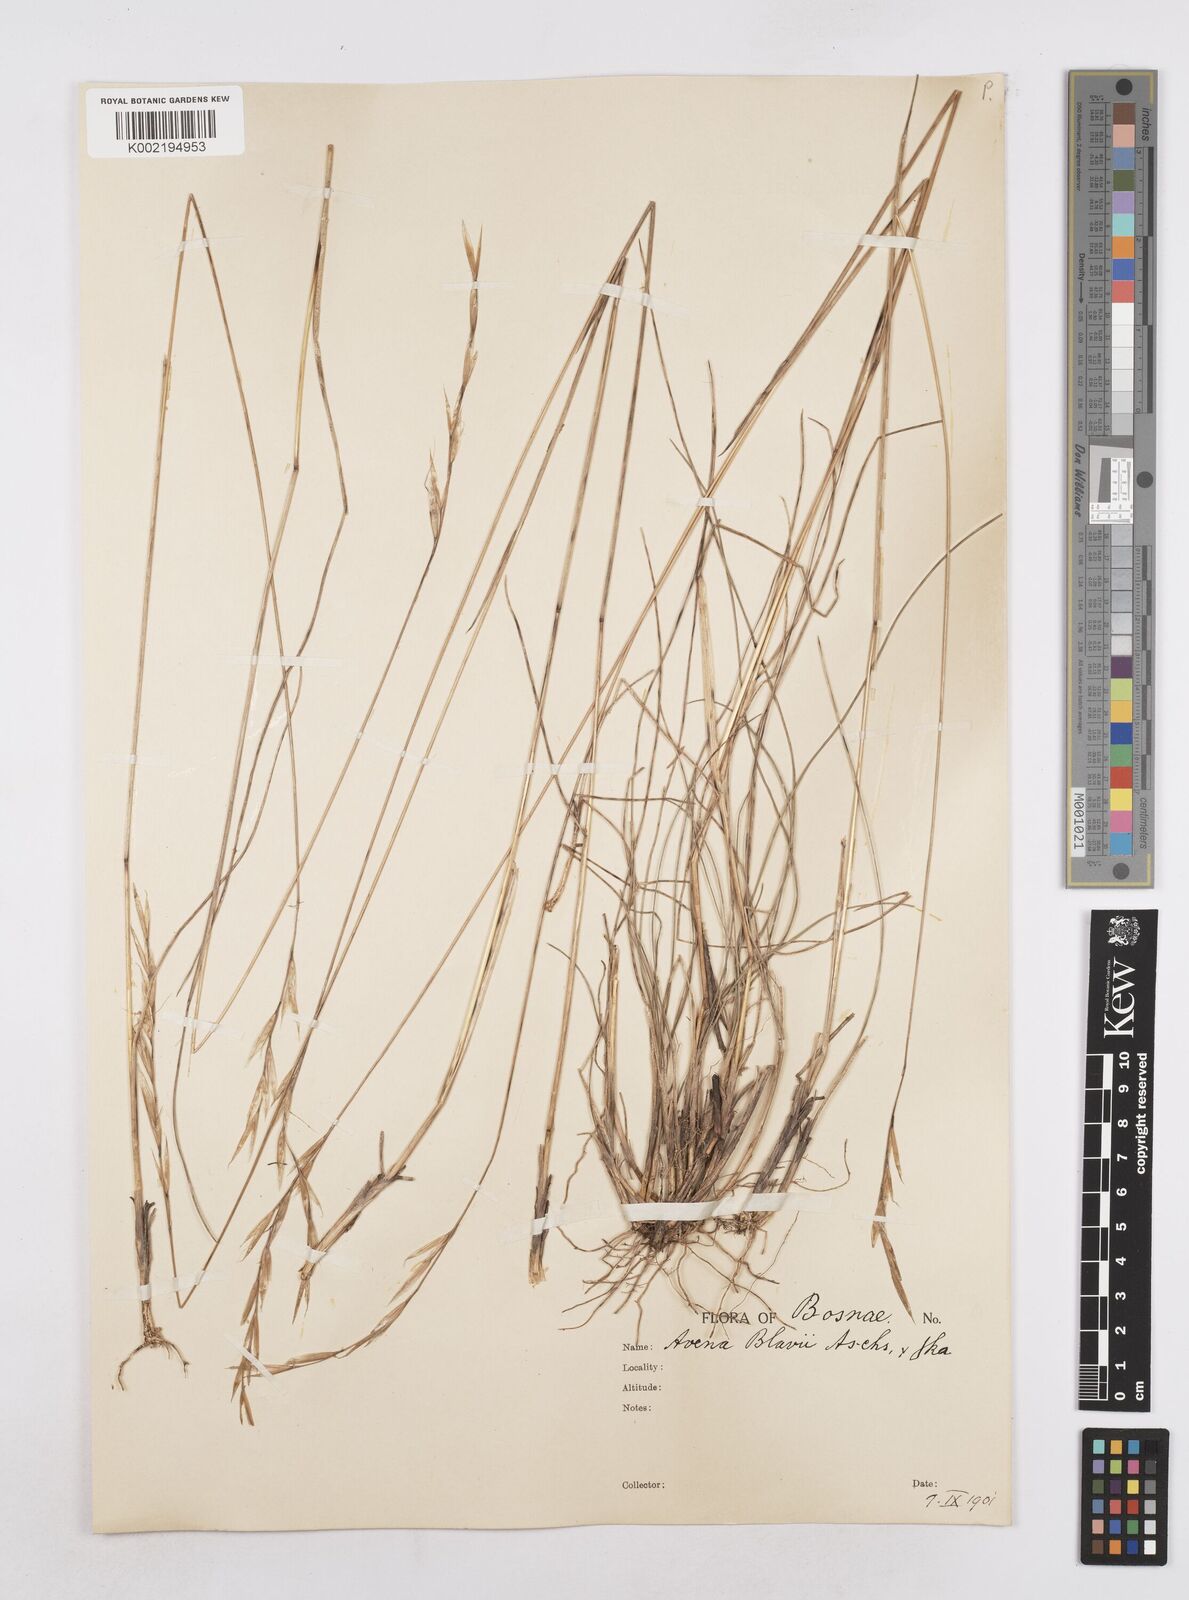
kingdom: Plantae
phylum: Tracheophyta
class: Liliopsida
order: Poales
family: Poaceae
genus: Helictochloa
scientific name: Helictochloa blaui
